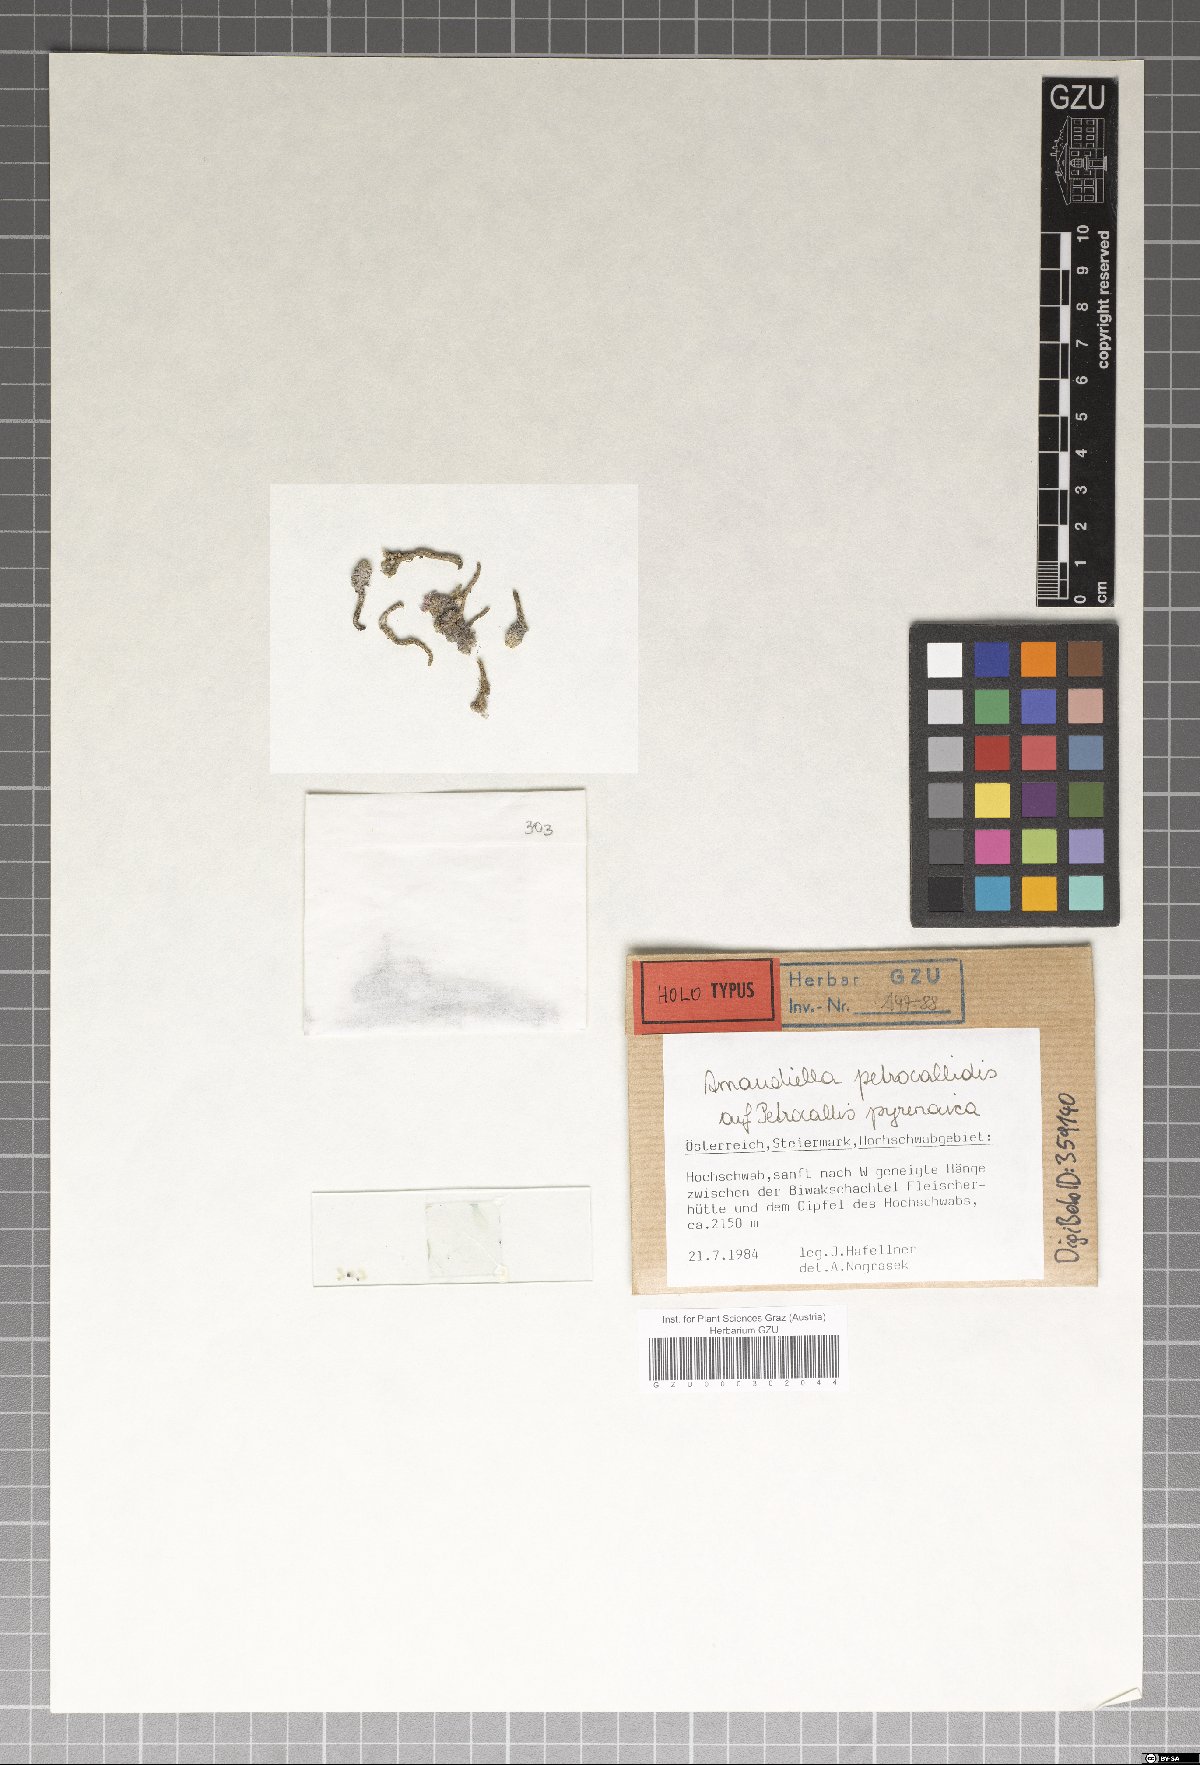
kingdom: Fungi
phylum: Ascomycota
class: Dothideomycetes
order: Microthyriales
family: Microthyriaceae
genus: Arnaudiella
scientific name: Arnaudiella petrocallidis
